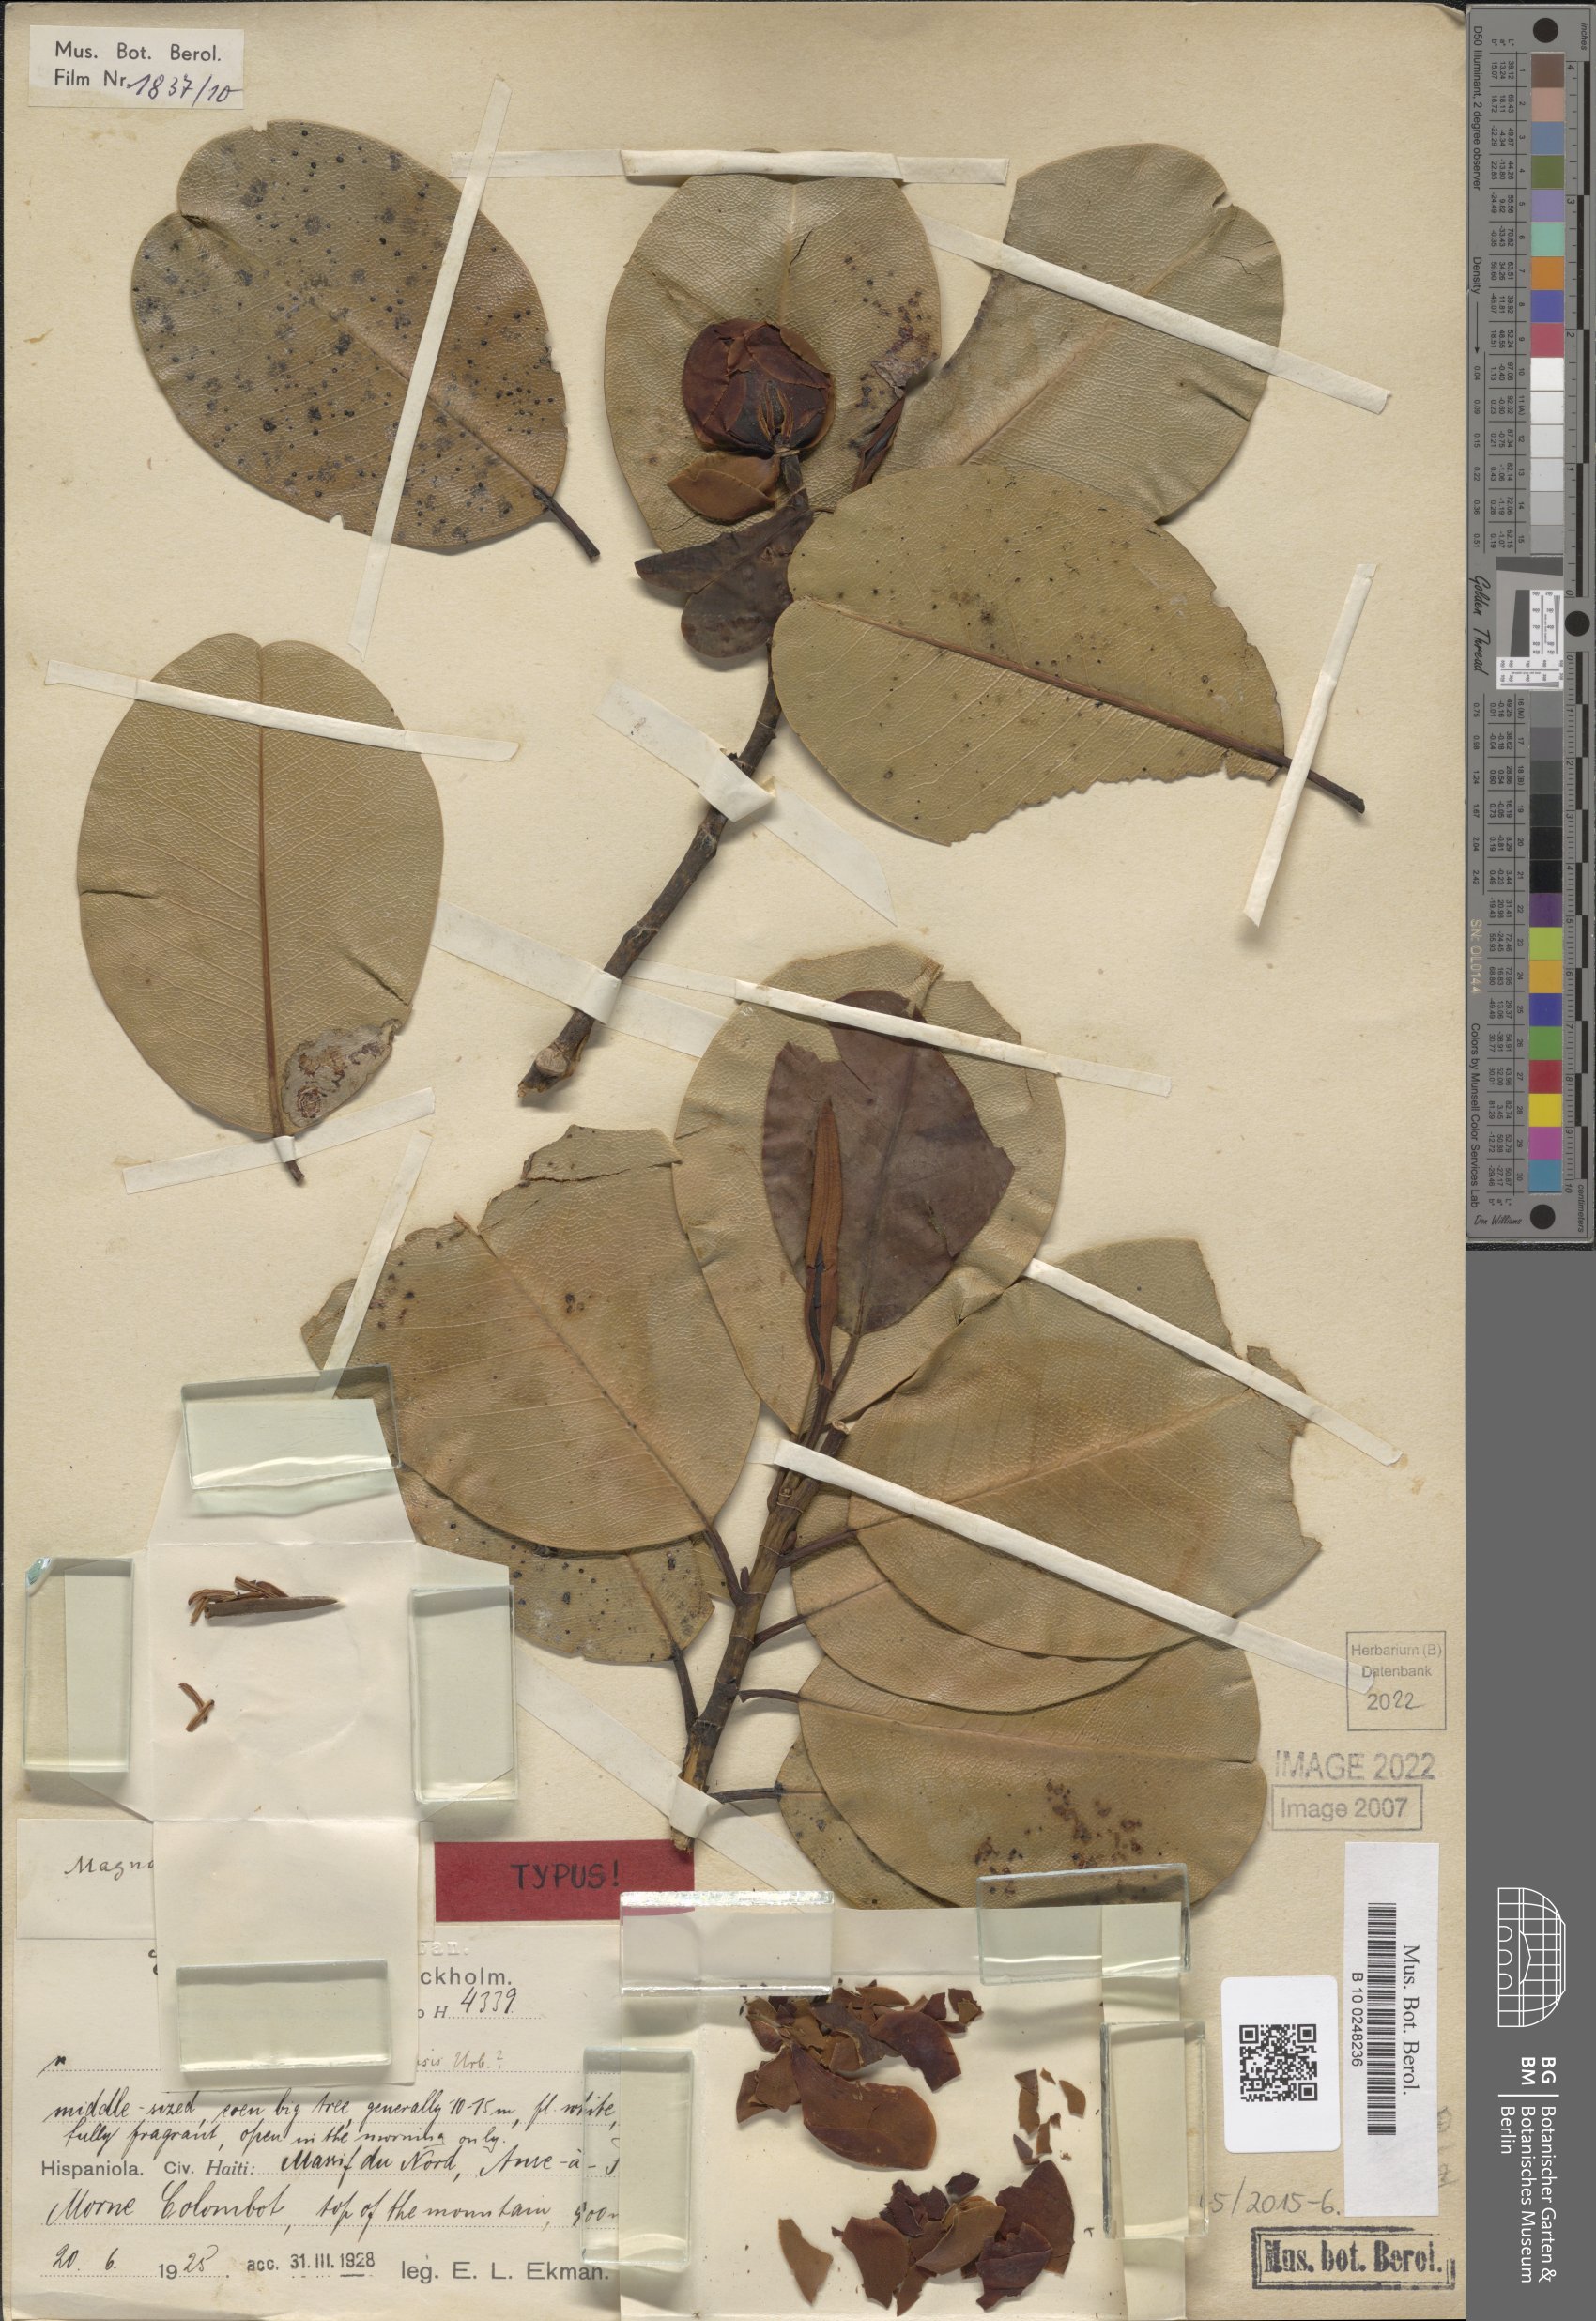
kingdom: Plantae
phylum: Tracheophyta
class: Magnoliopsida
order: Magnoliales
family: Magnoliaceae
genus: Magnolia
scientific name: Magnolia emarginata
